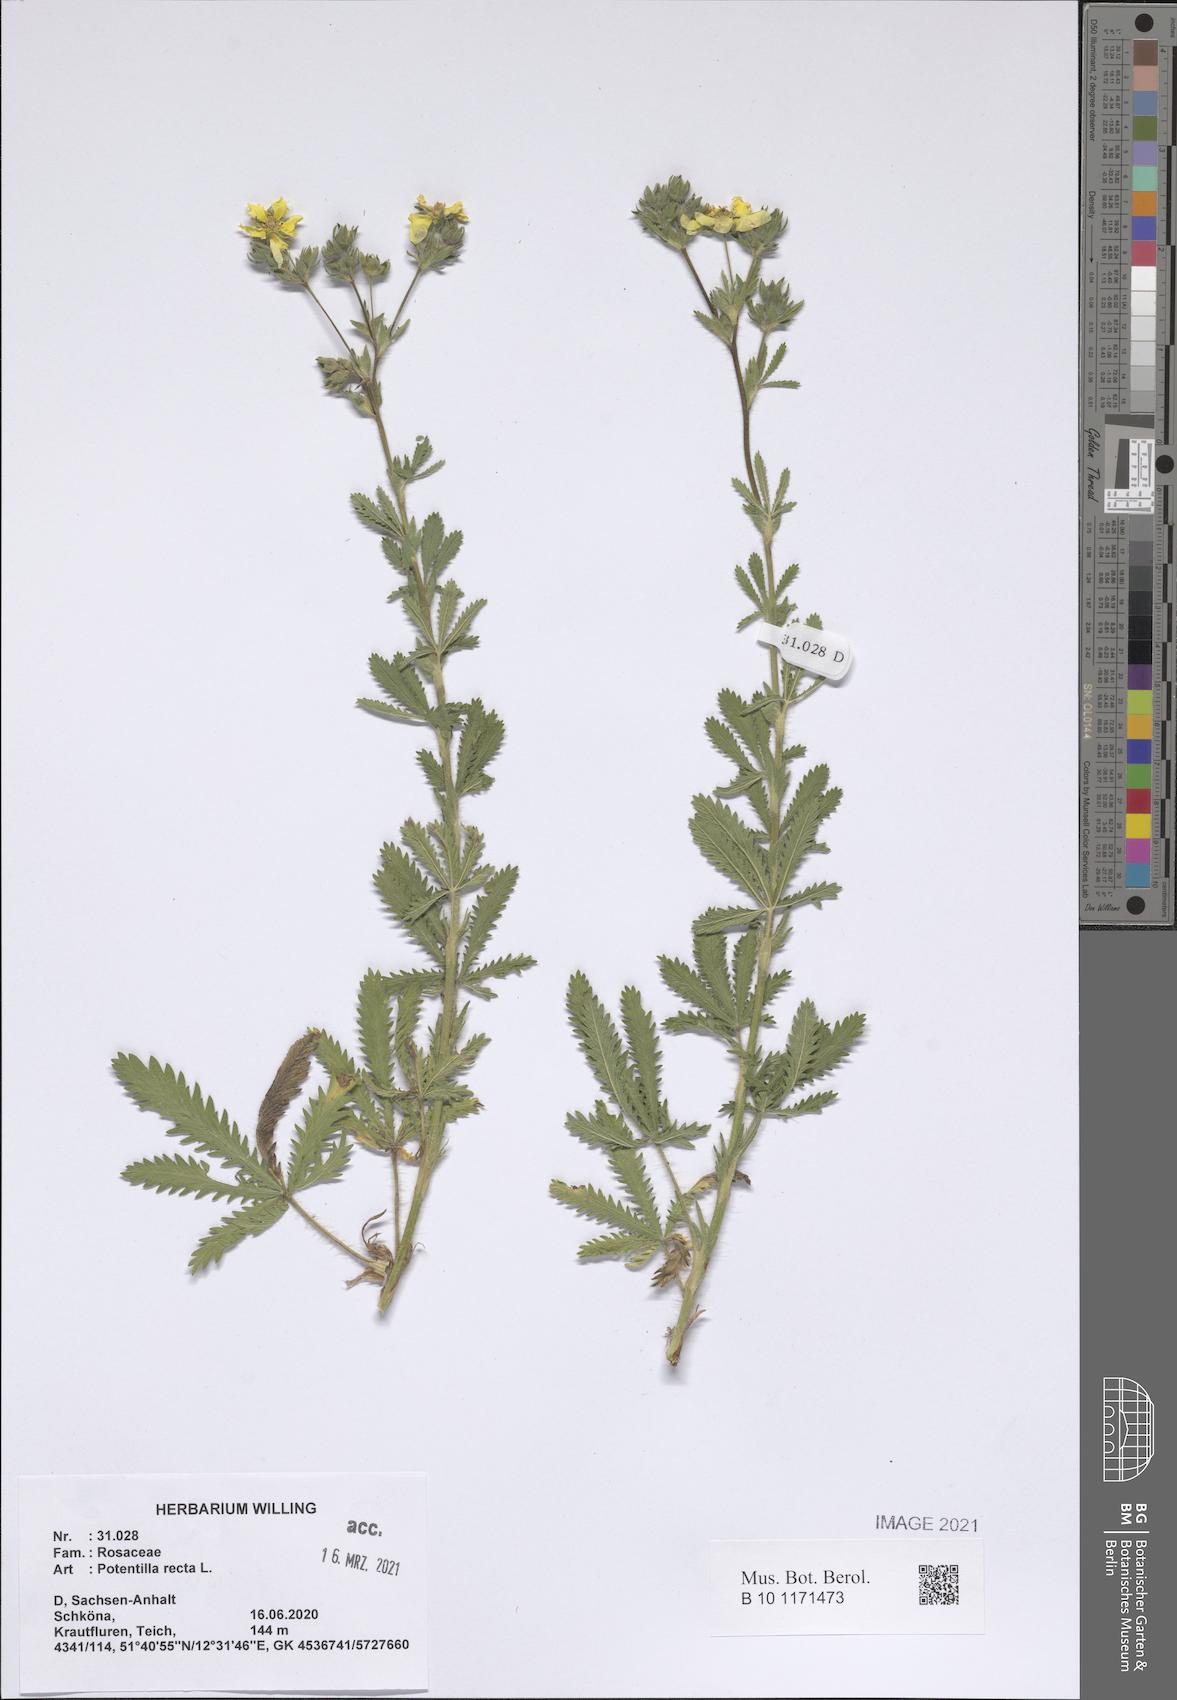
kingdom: Plantae
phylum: Tracheophyta
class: Magnoliopsida
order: Rosales
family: Rosaceae
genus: Potentilla
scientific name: Potentilla recta
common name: Sulphur cinquefoil
